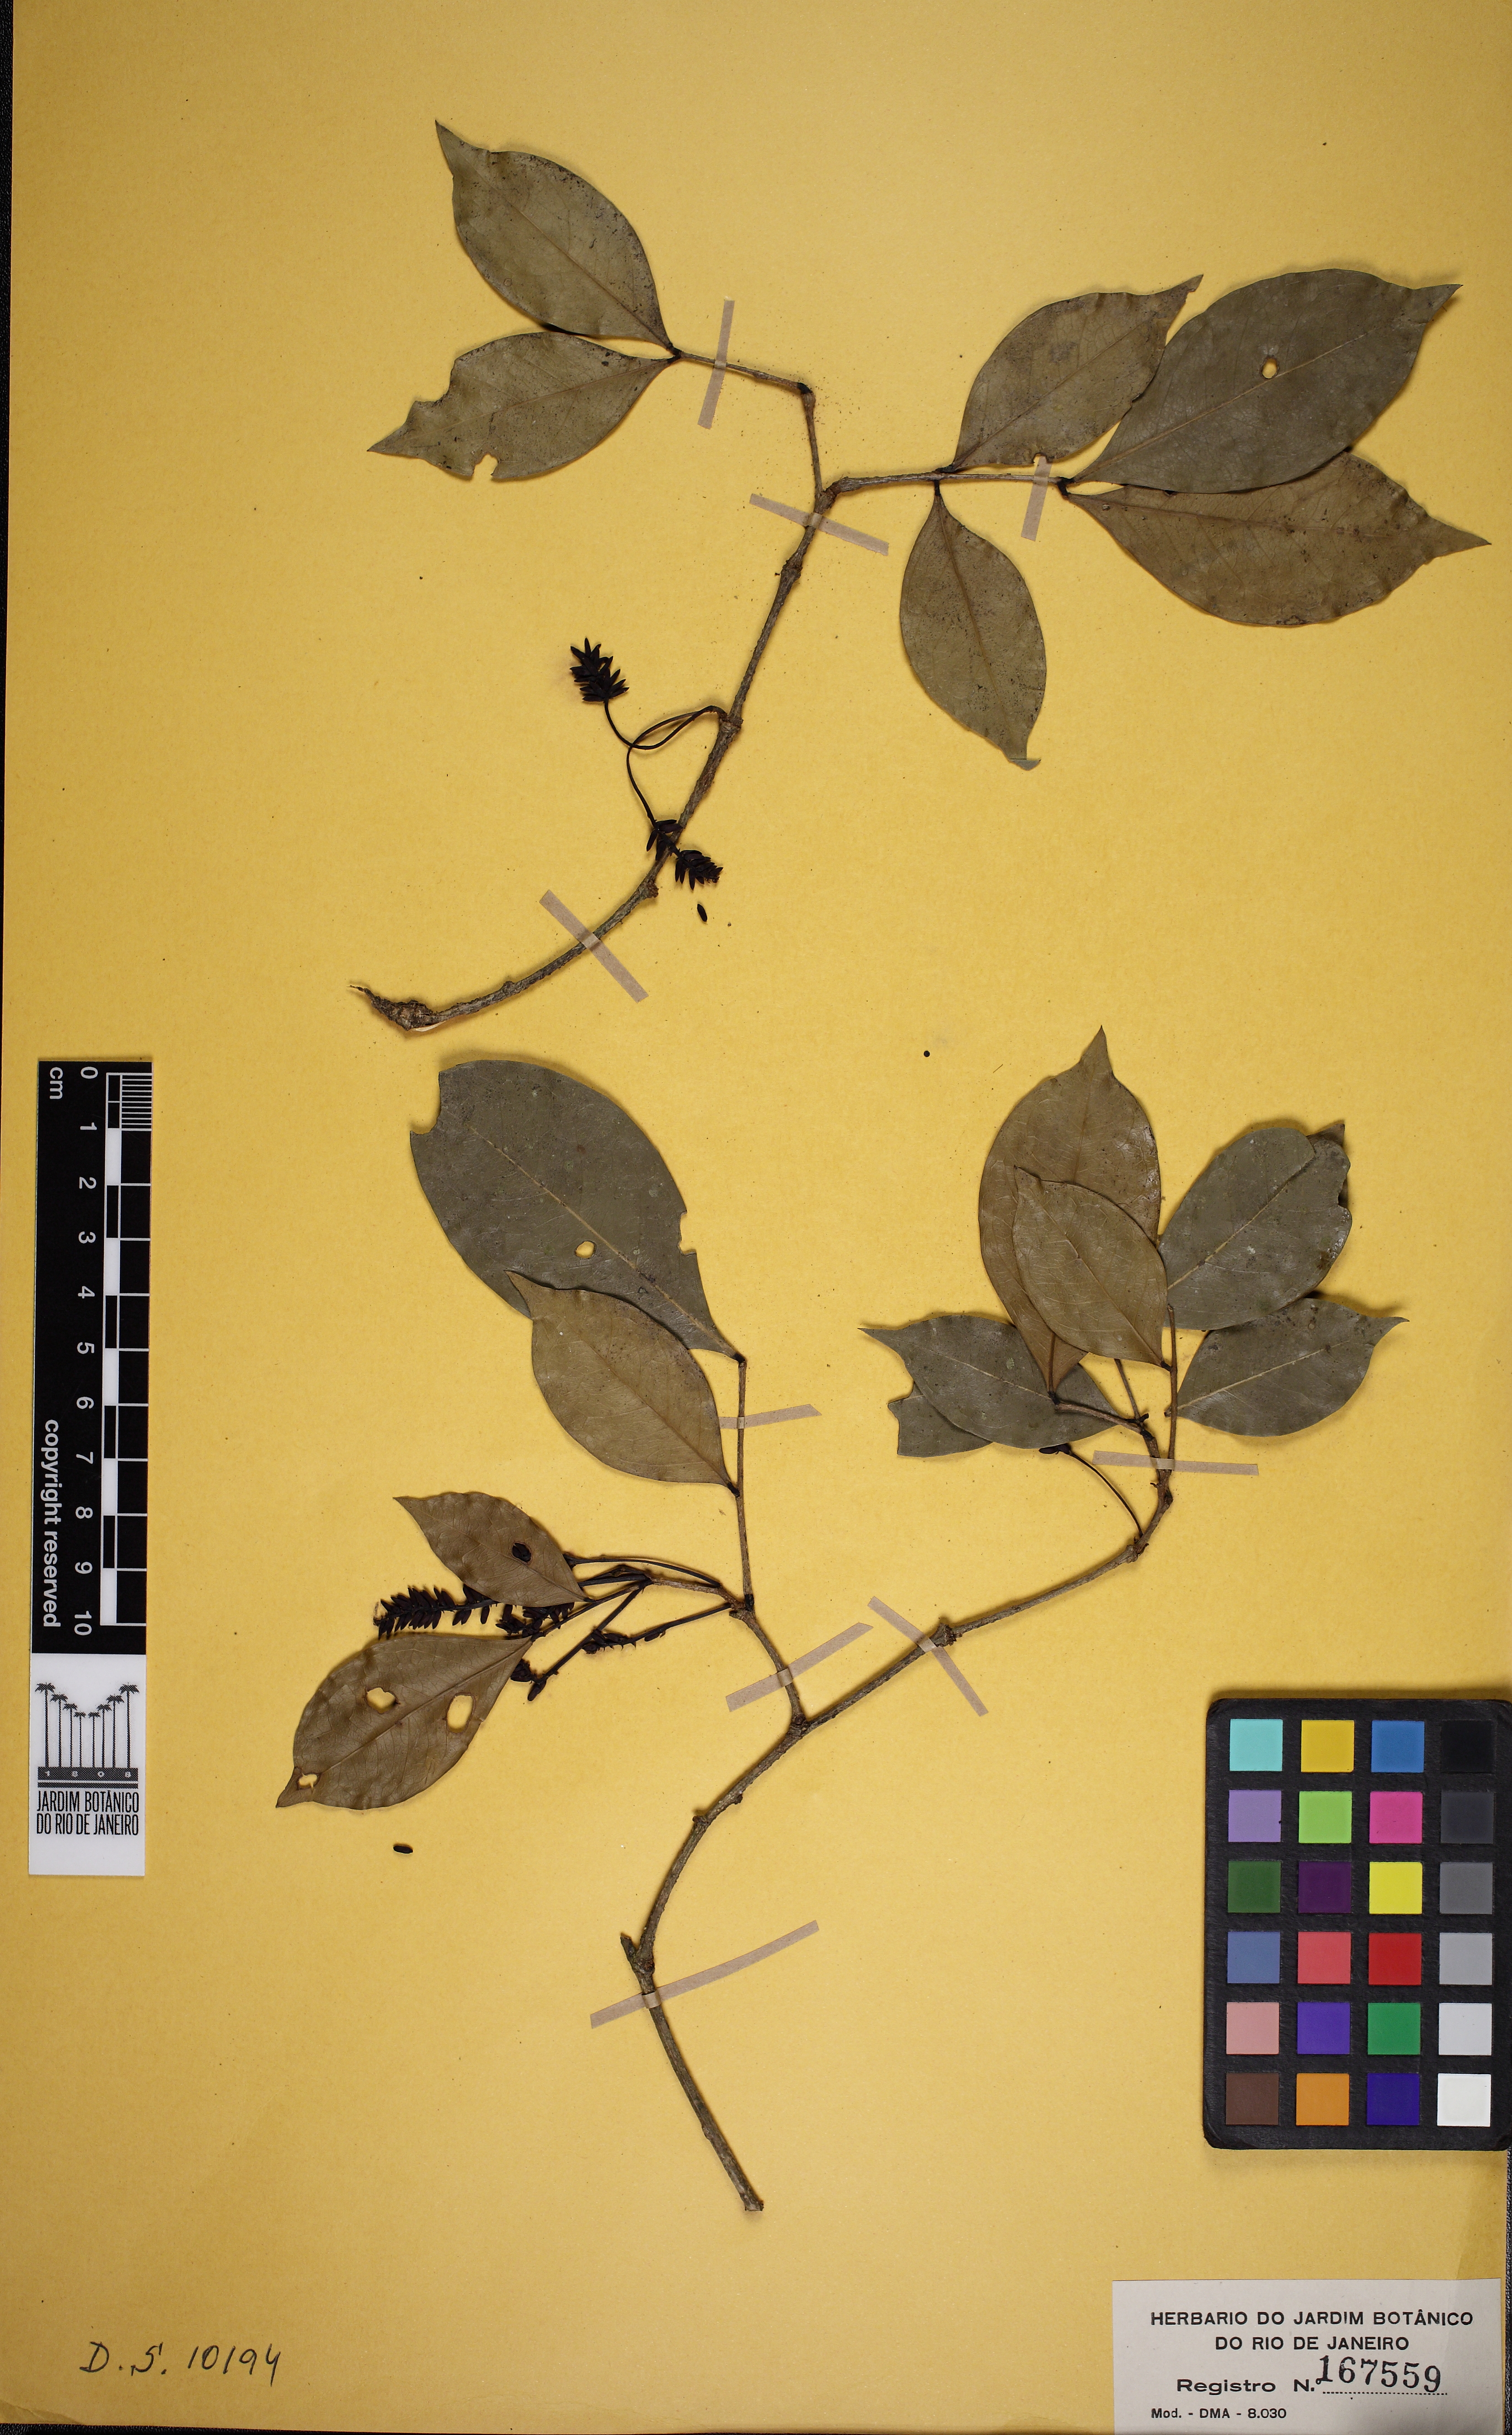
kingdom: Plantae
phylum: Tracheophyta
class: Magnoliopsida
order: Fabales
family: Fabaceae
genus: Inga
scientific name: Inga capitata
